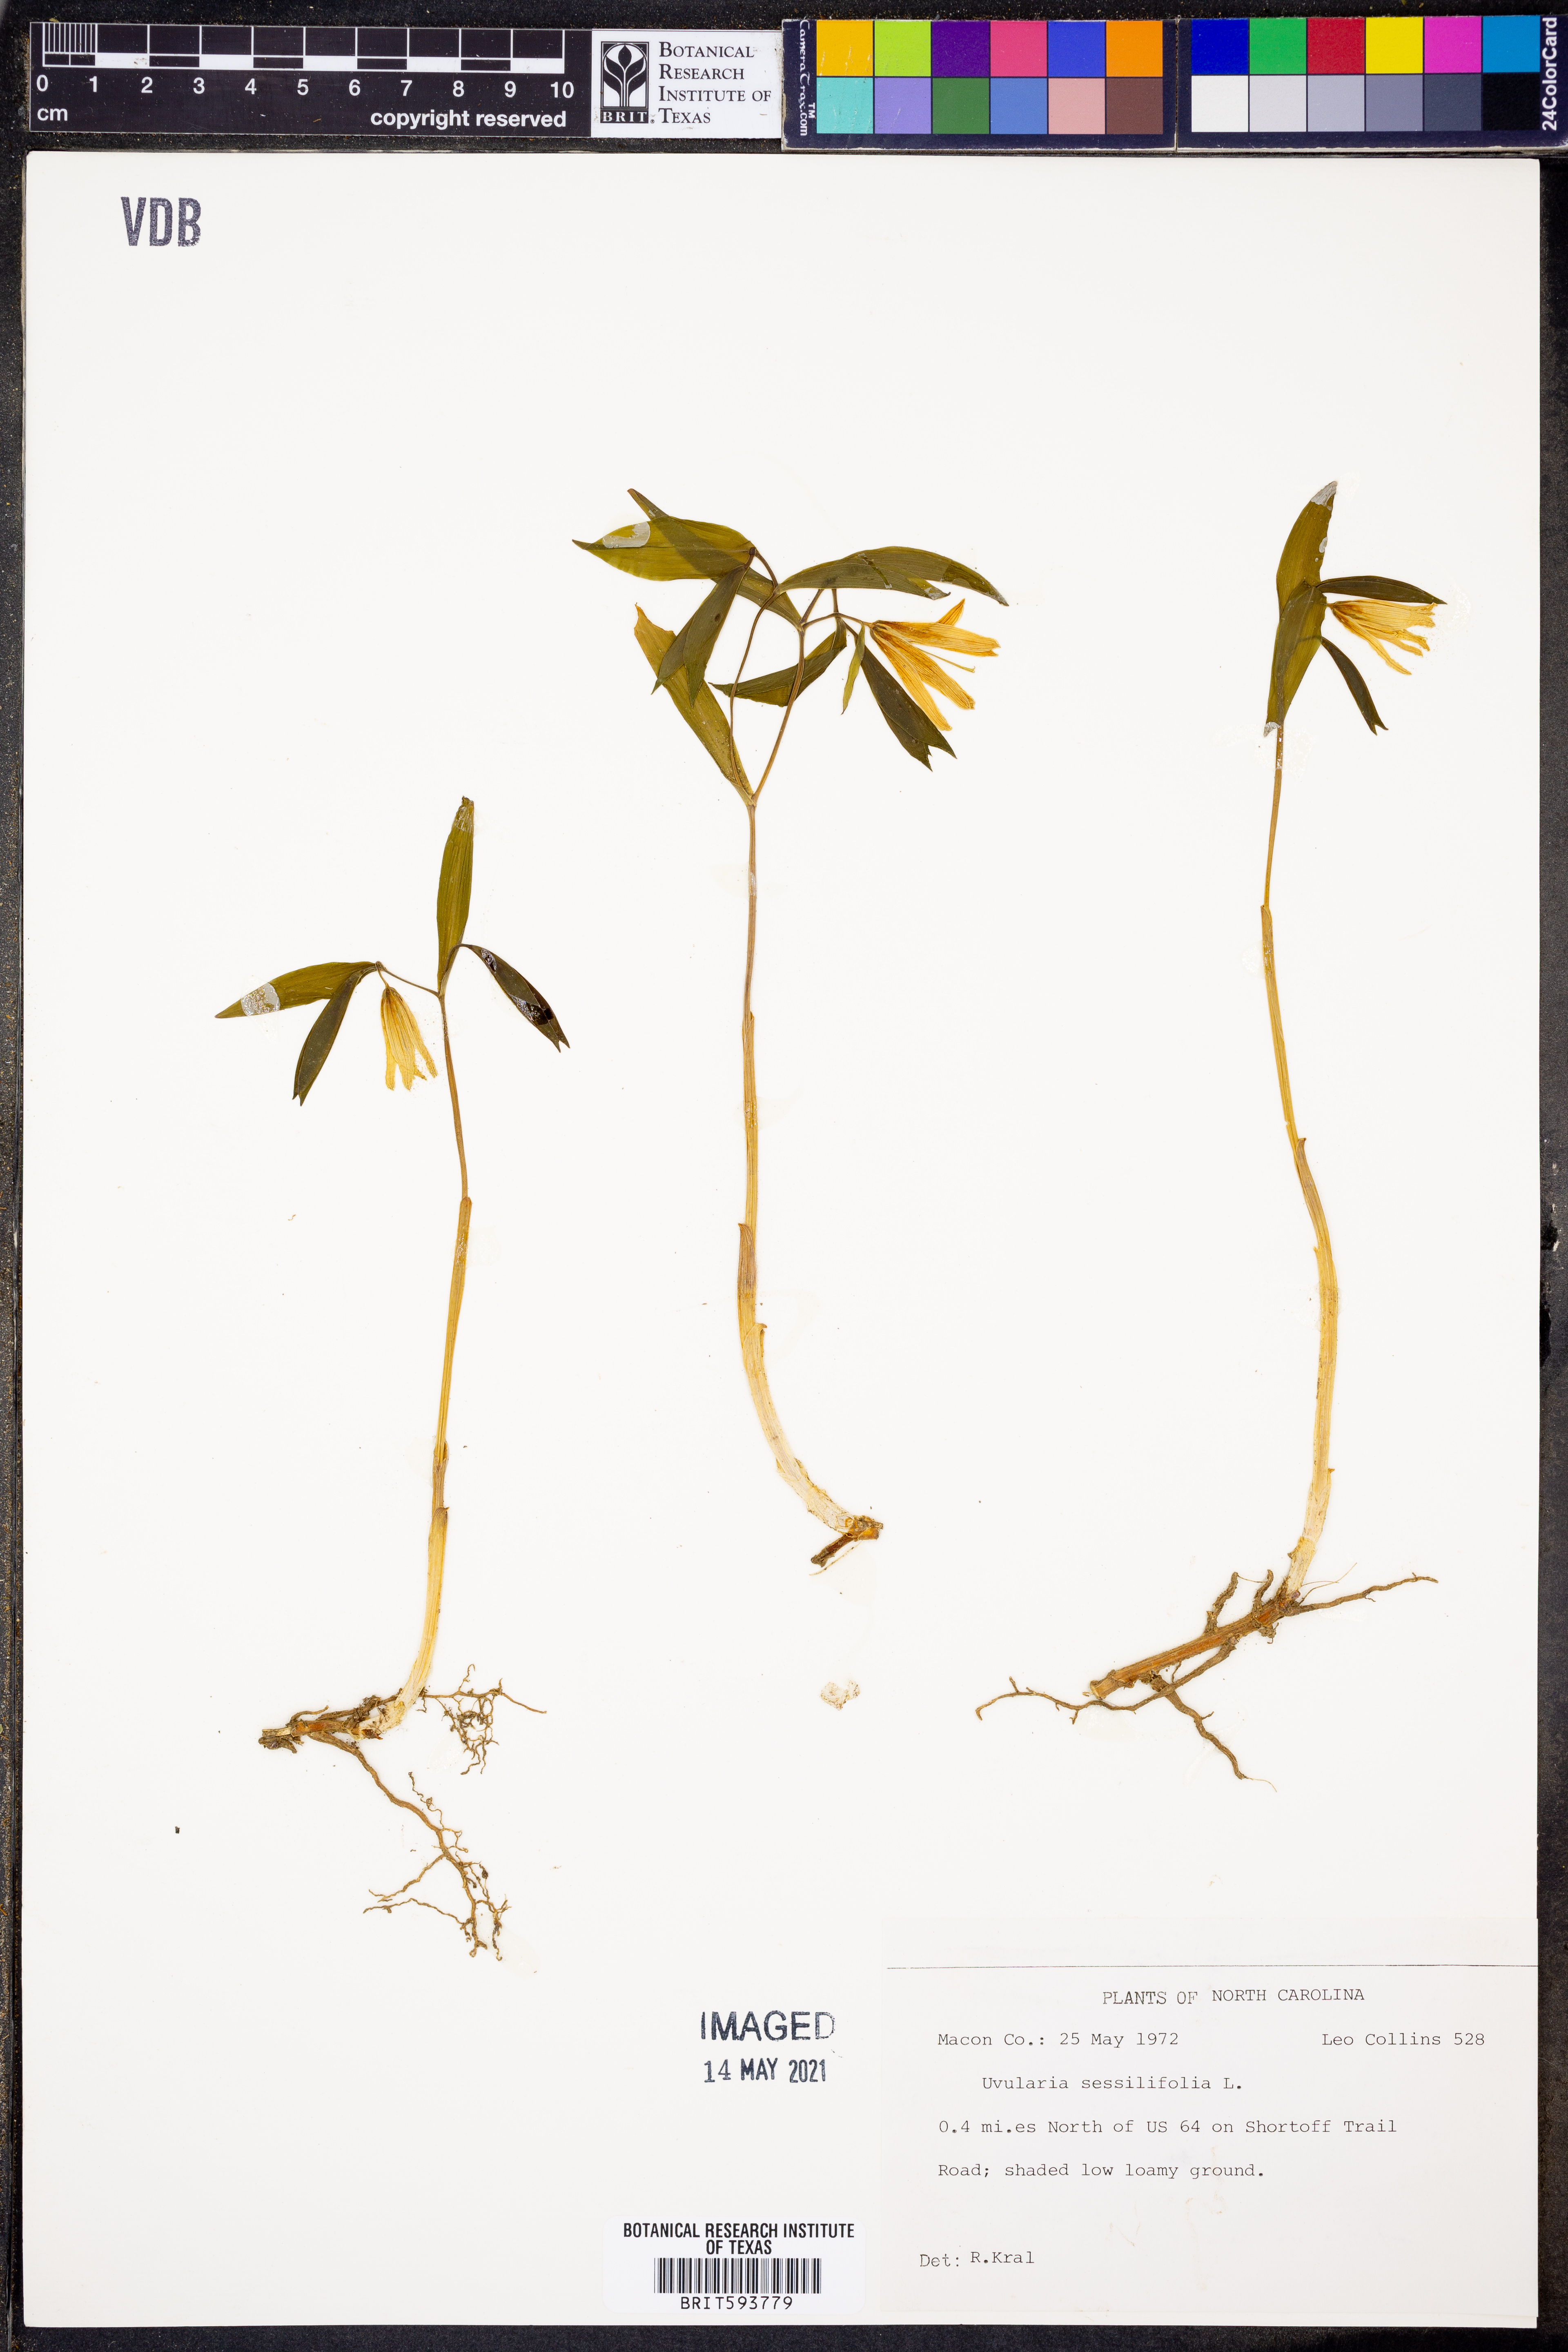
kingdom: Plantae
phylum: Tracheophyta
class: Liliopsida
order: Liliales
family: Colchicaceae
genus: Uvularia
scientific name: Uvularia sessilifolia
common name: Straw-lily
